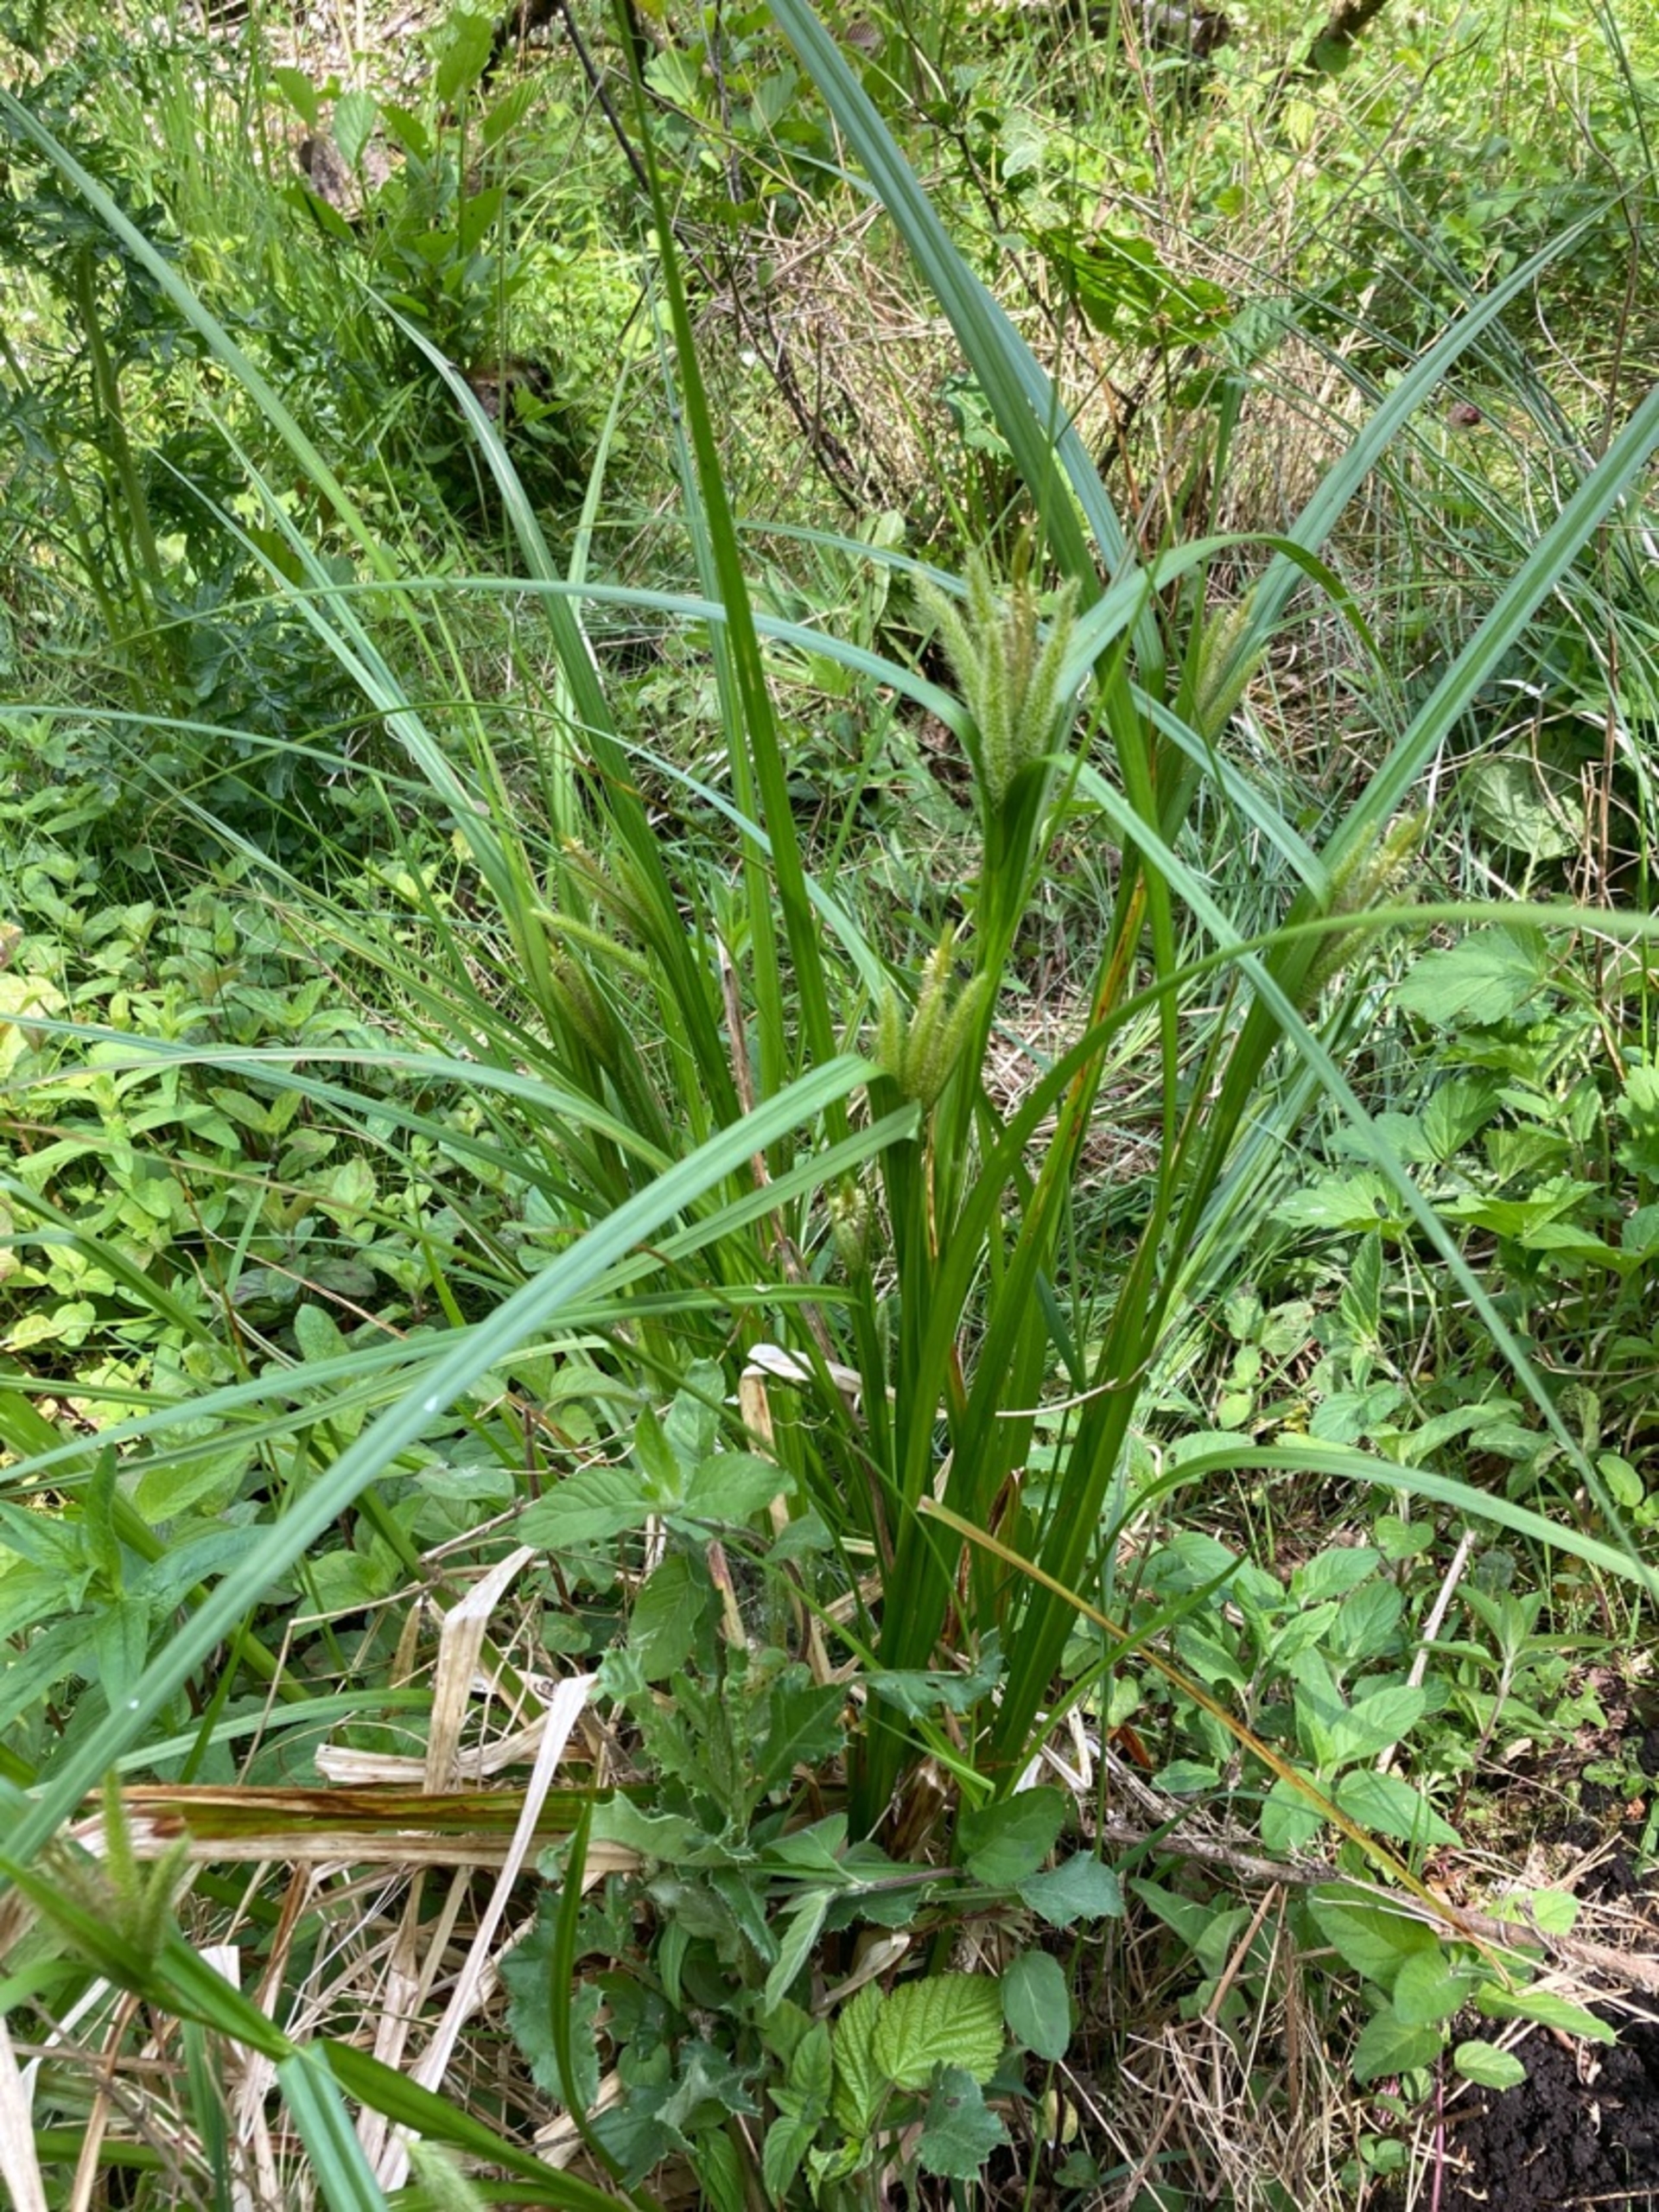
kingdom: Plantae
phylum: Tracheophyta
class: Liliopsida
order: Poales
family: Cyperaceae
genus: Carex
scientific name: Carex pseudocyperus
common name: Knippe-star
